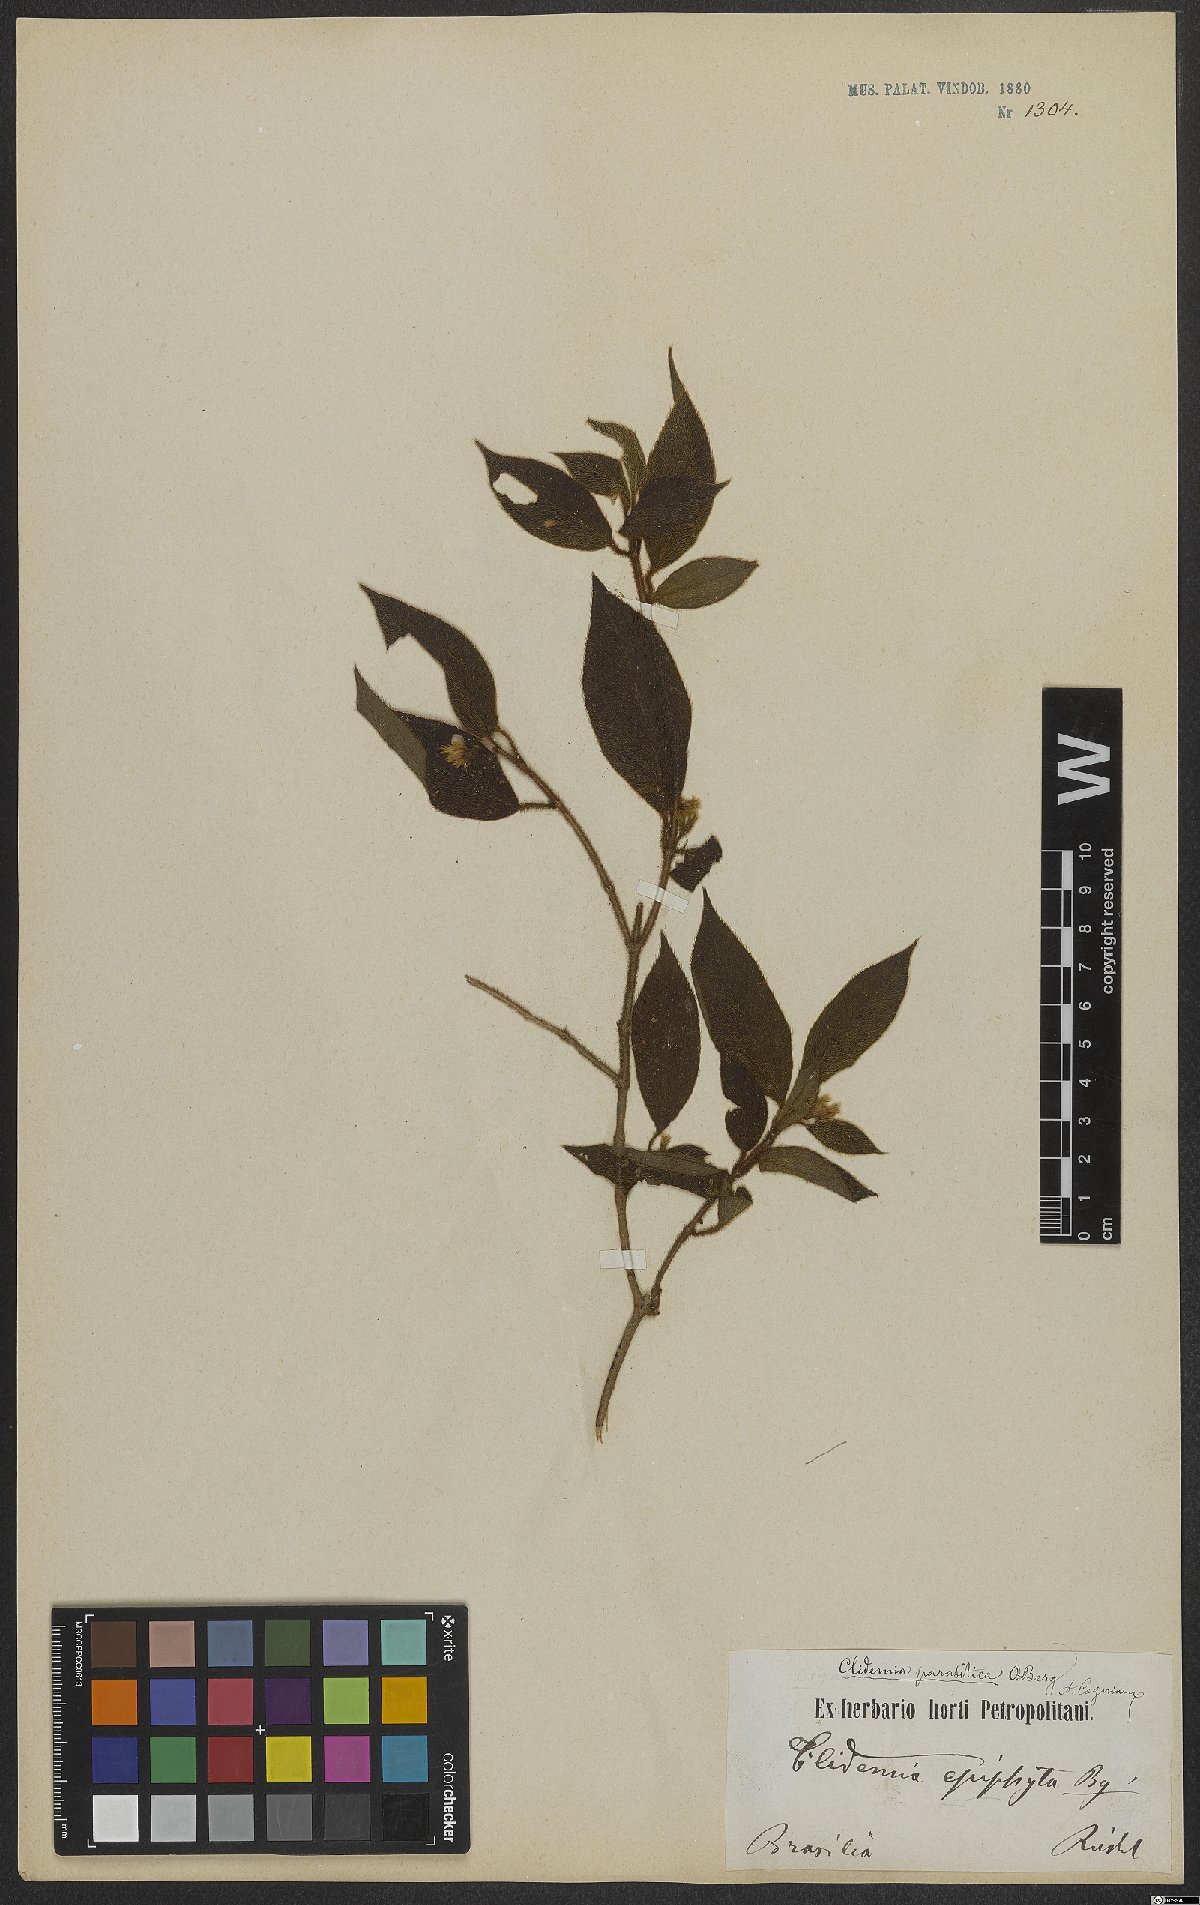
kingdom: Plantae
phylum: Tracheophyta
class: Magnoliopsida
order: Myrtales
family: Melastomataceae
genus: Miconia
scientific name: Miconia parasitica
